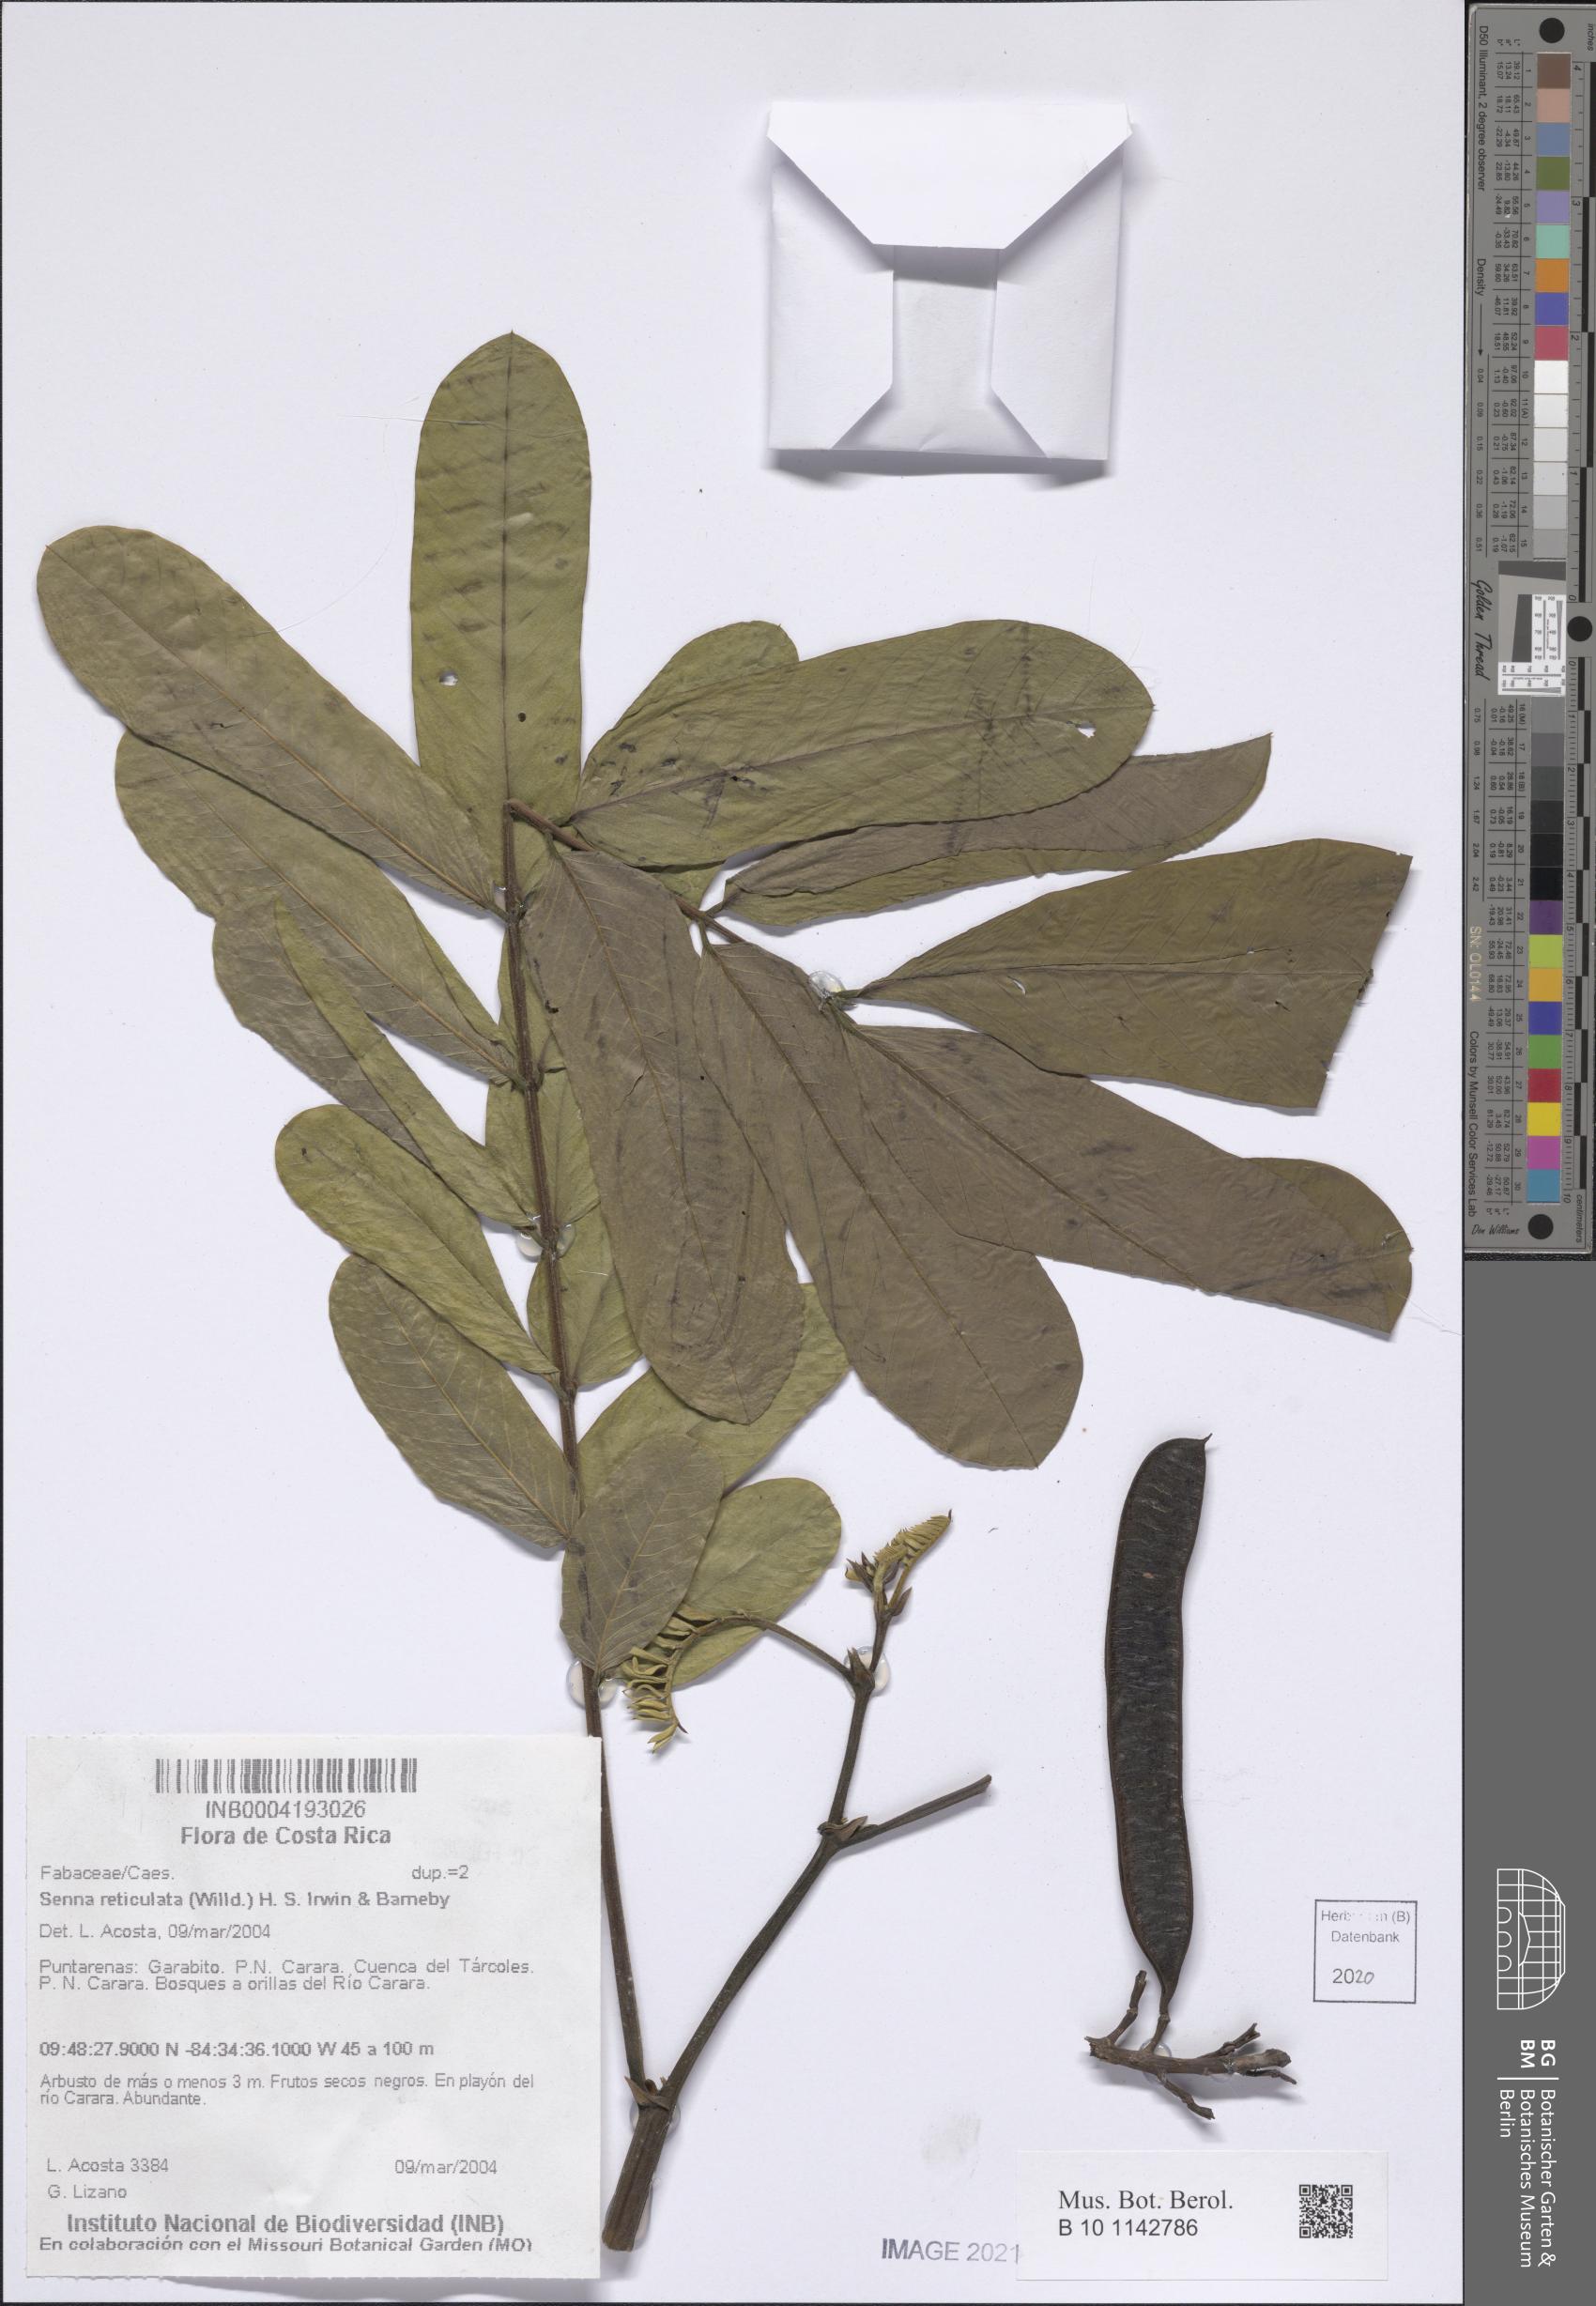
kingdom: Plantae
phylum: Tracheophyta
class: Magnoliopsida
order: Fabales
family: Fabaceae
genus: Senna
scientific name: Senna reticulata
